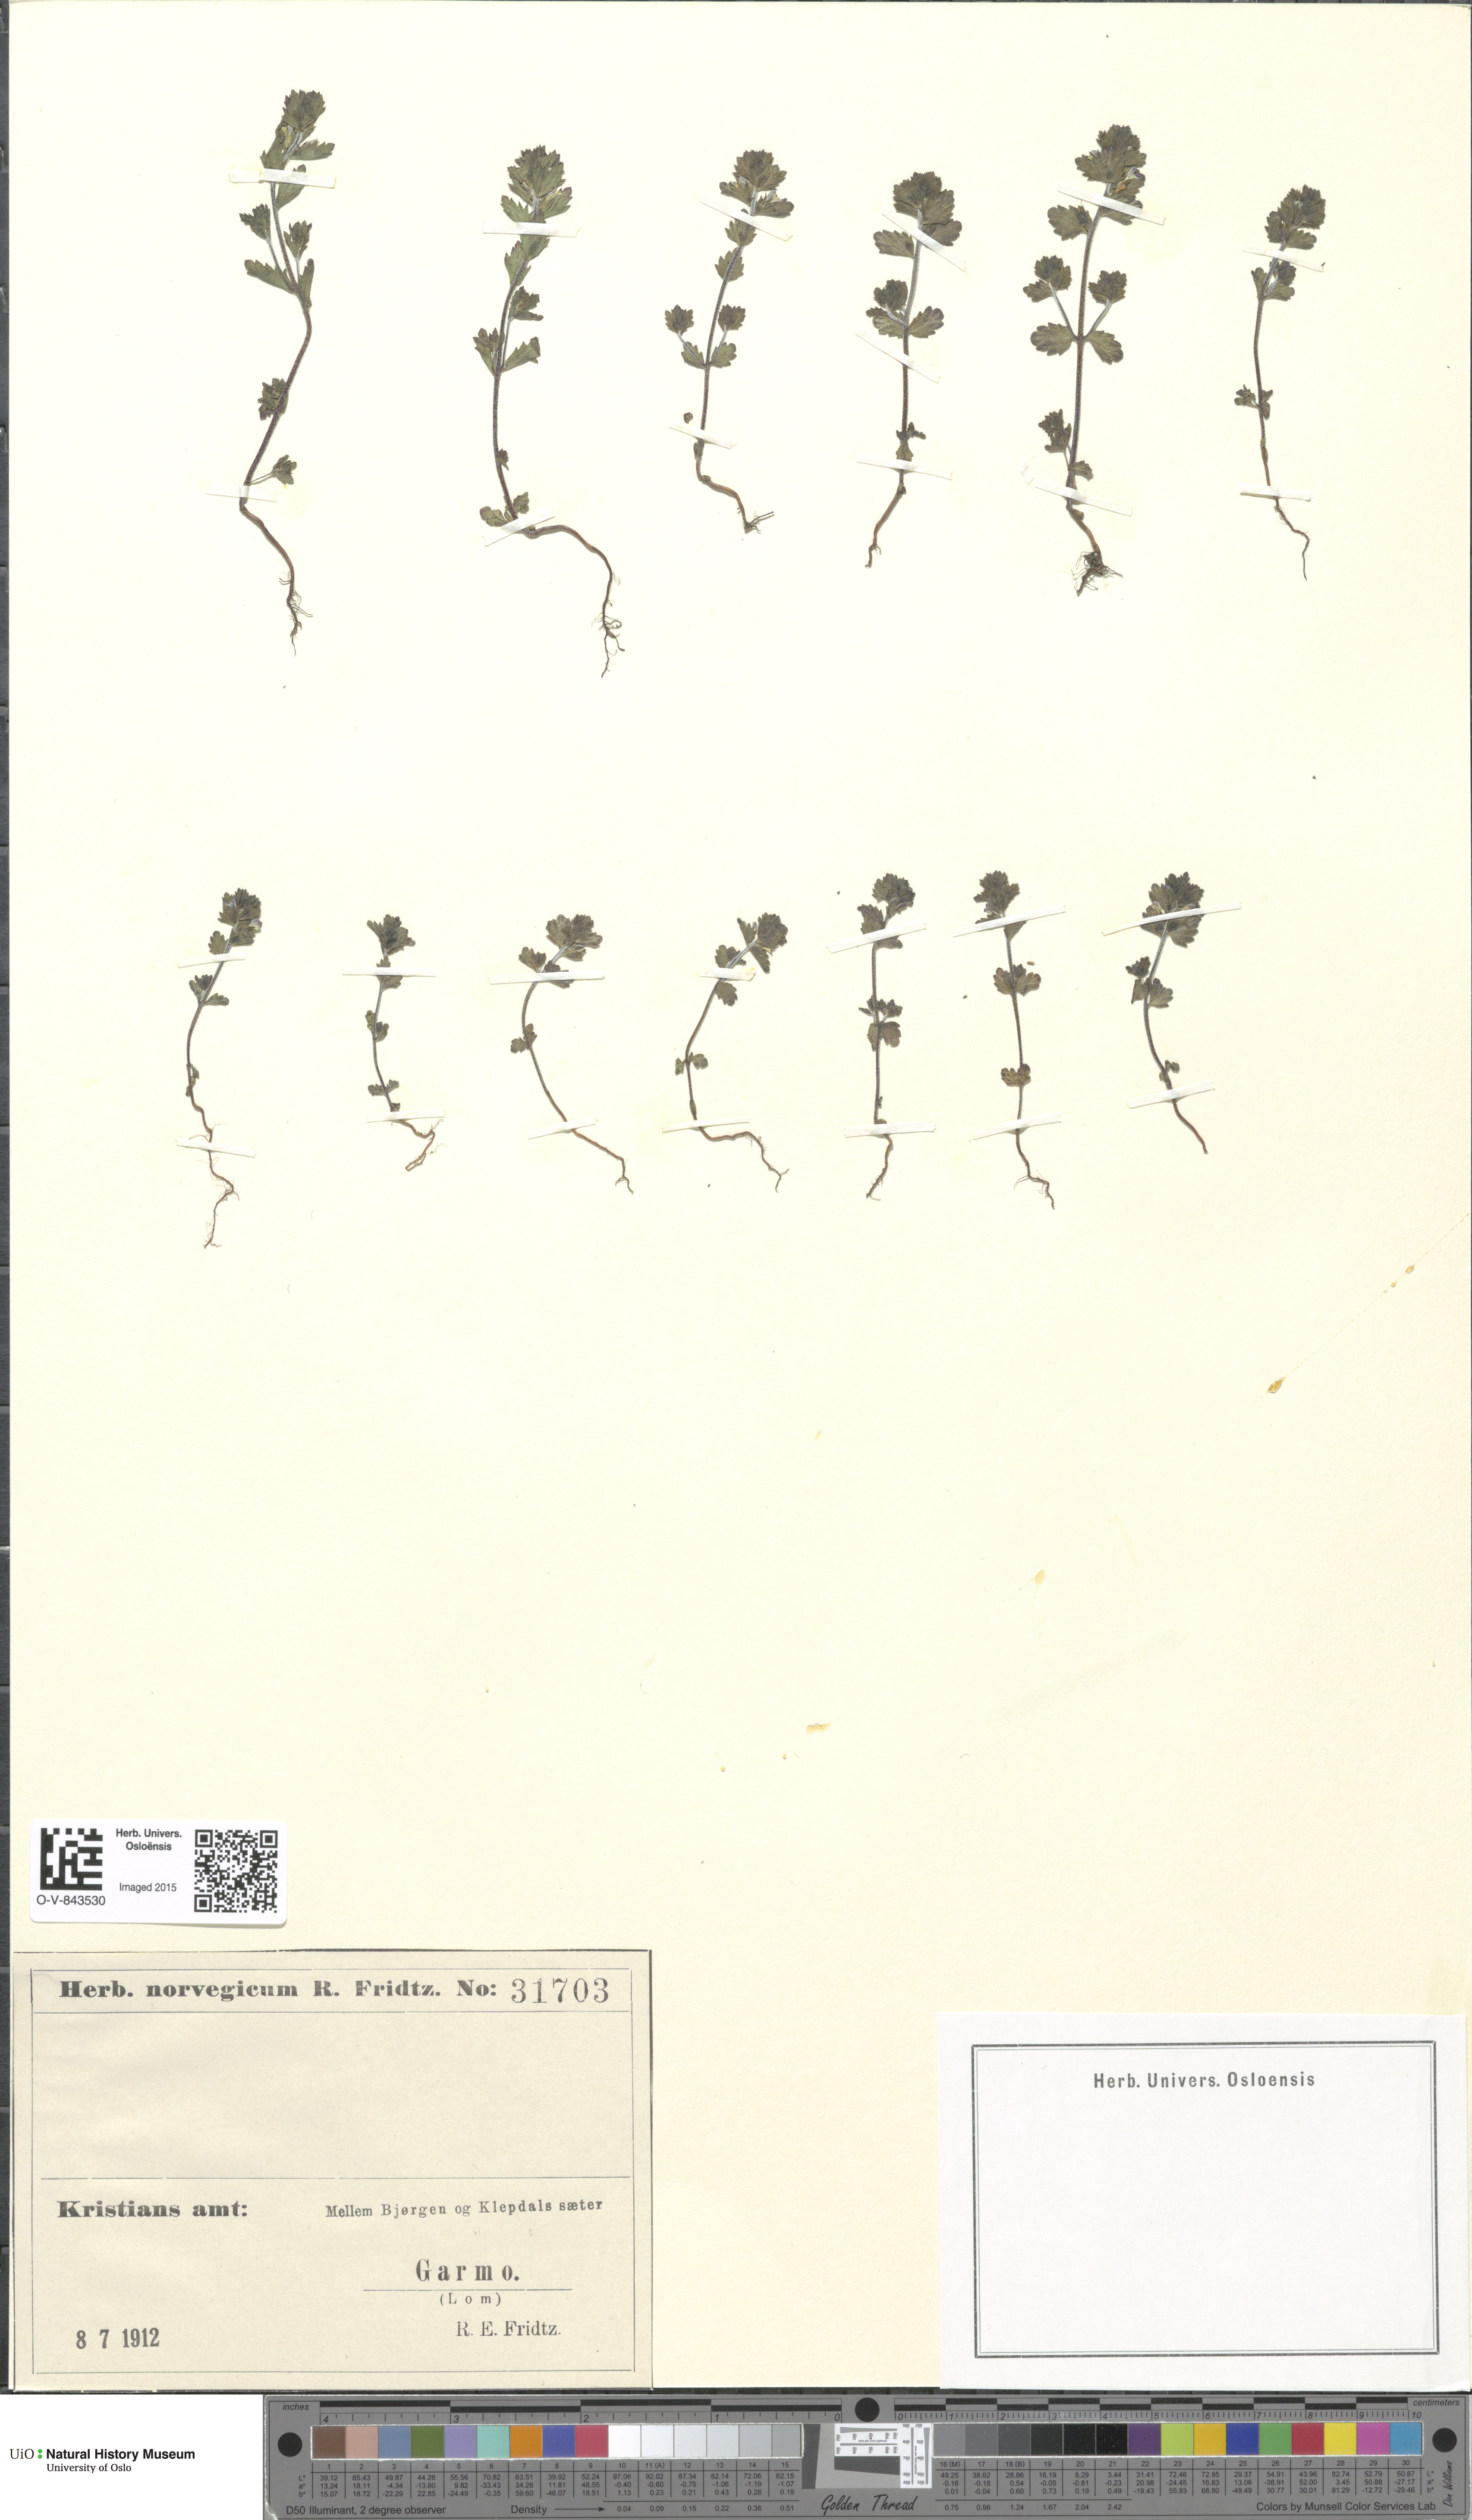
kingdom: Plantae
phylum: Tracheophyta
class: Magnoliopsida
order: Lamiales
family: Orobanchaceae
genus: Euphrasia
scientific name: Euphrasia
